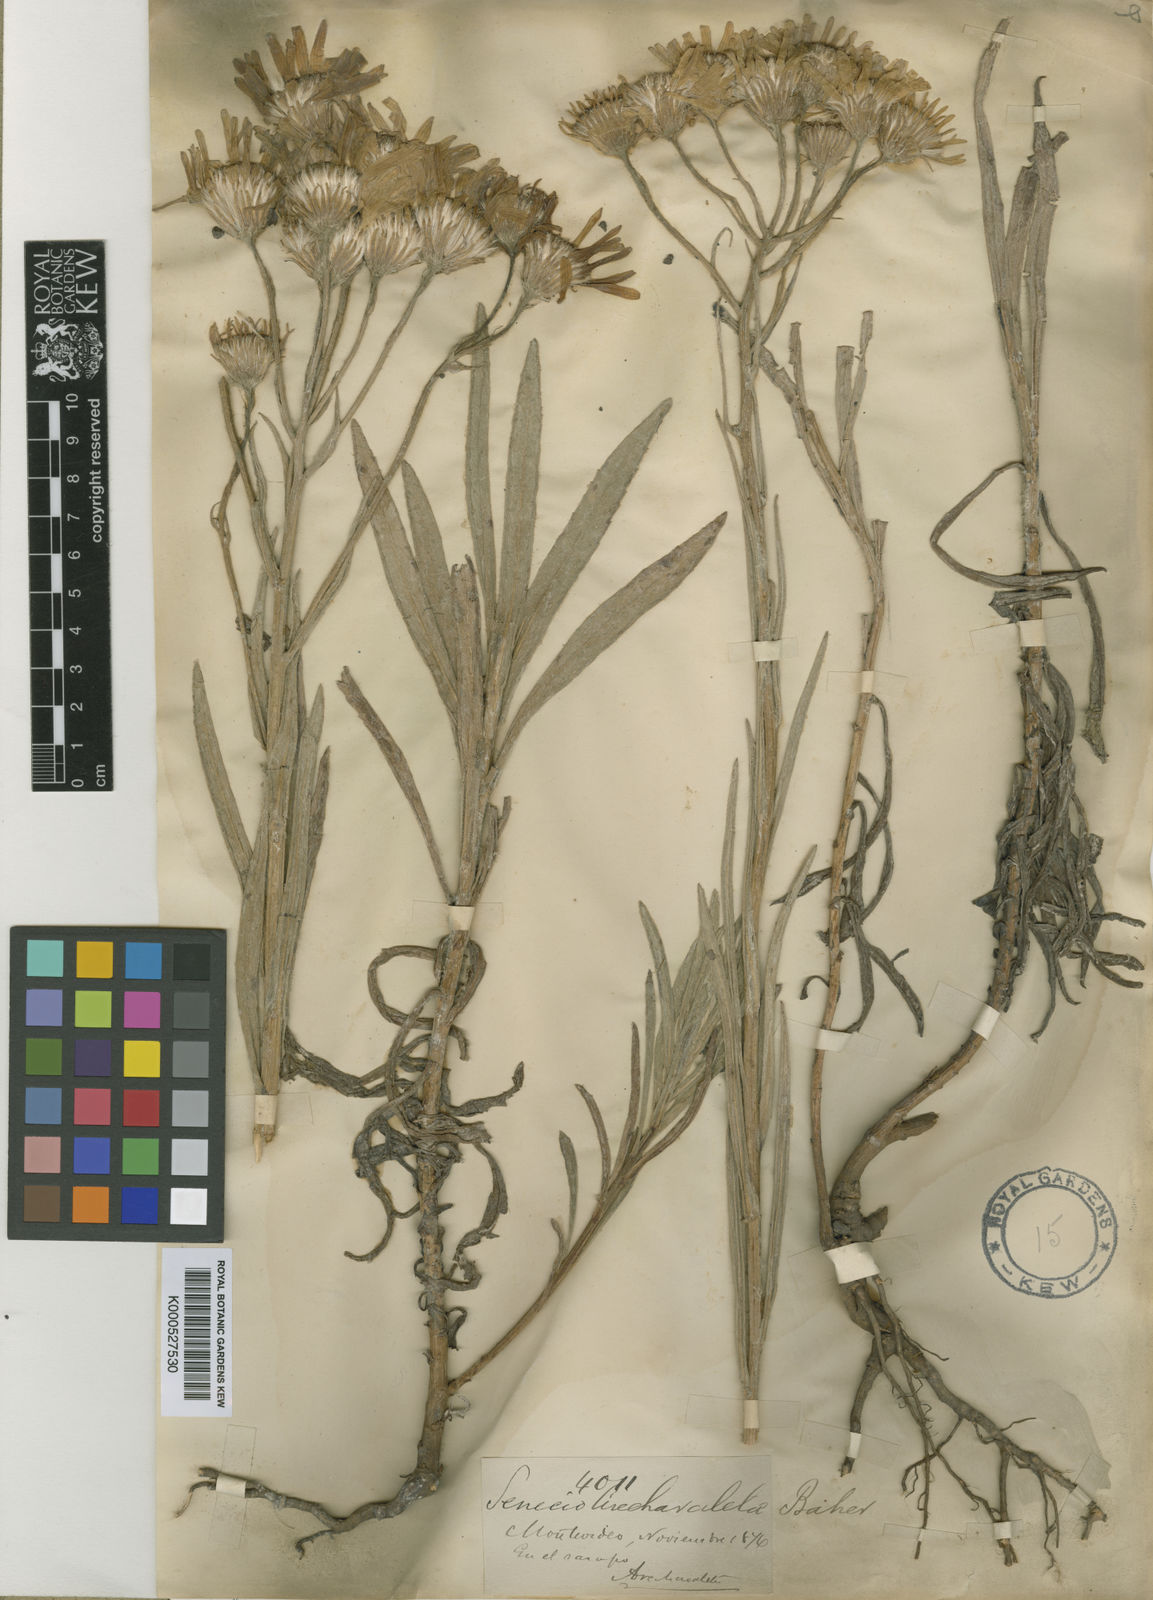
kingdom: Plantae
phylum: Tracheophyta
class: Magnoliopsida
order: Asterales
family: Asteraceae
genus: Senecio
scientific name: Senecio arechavaletae
